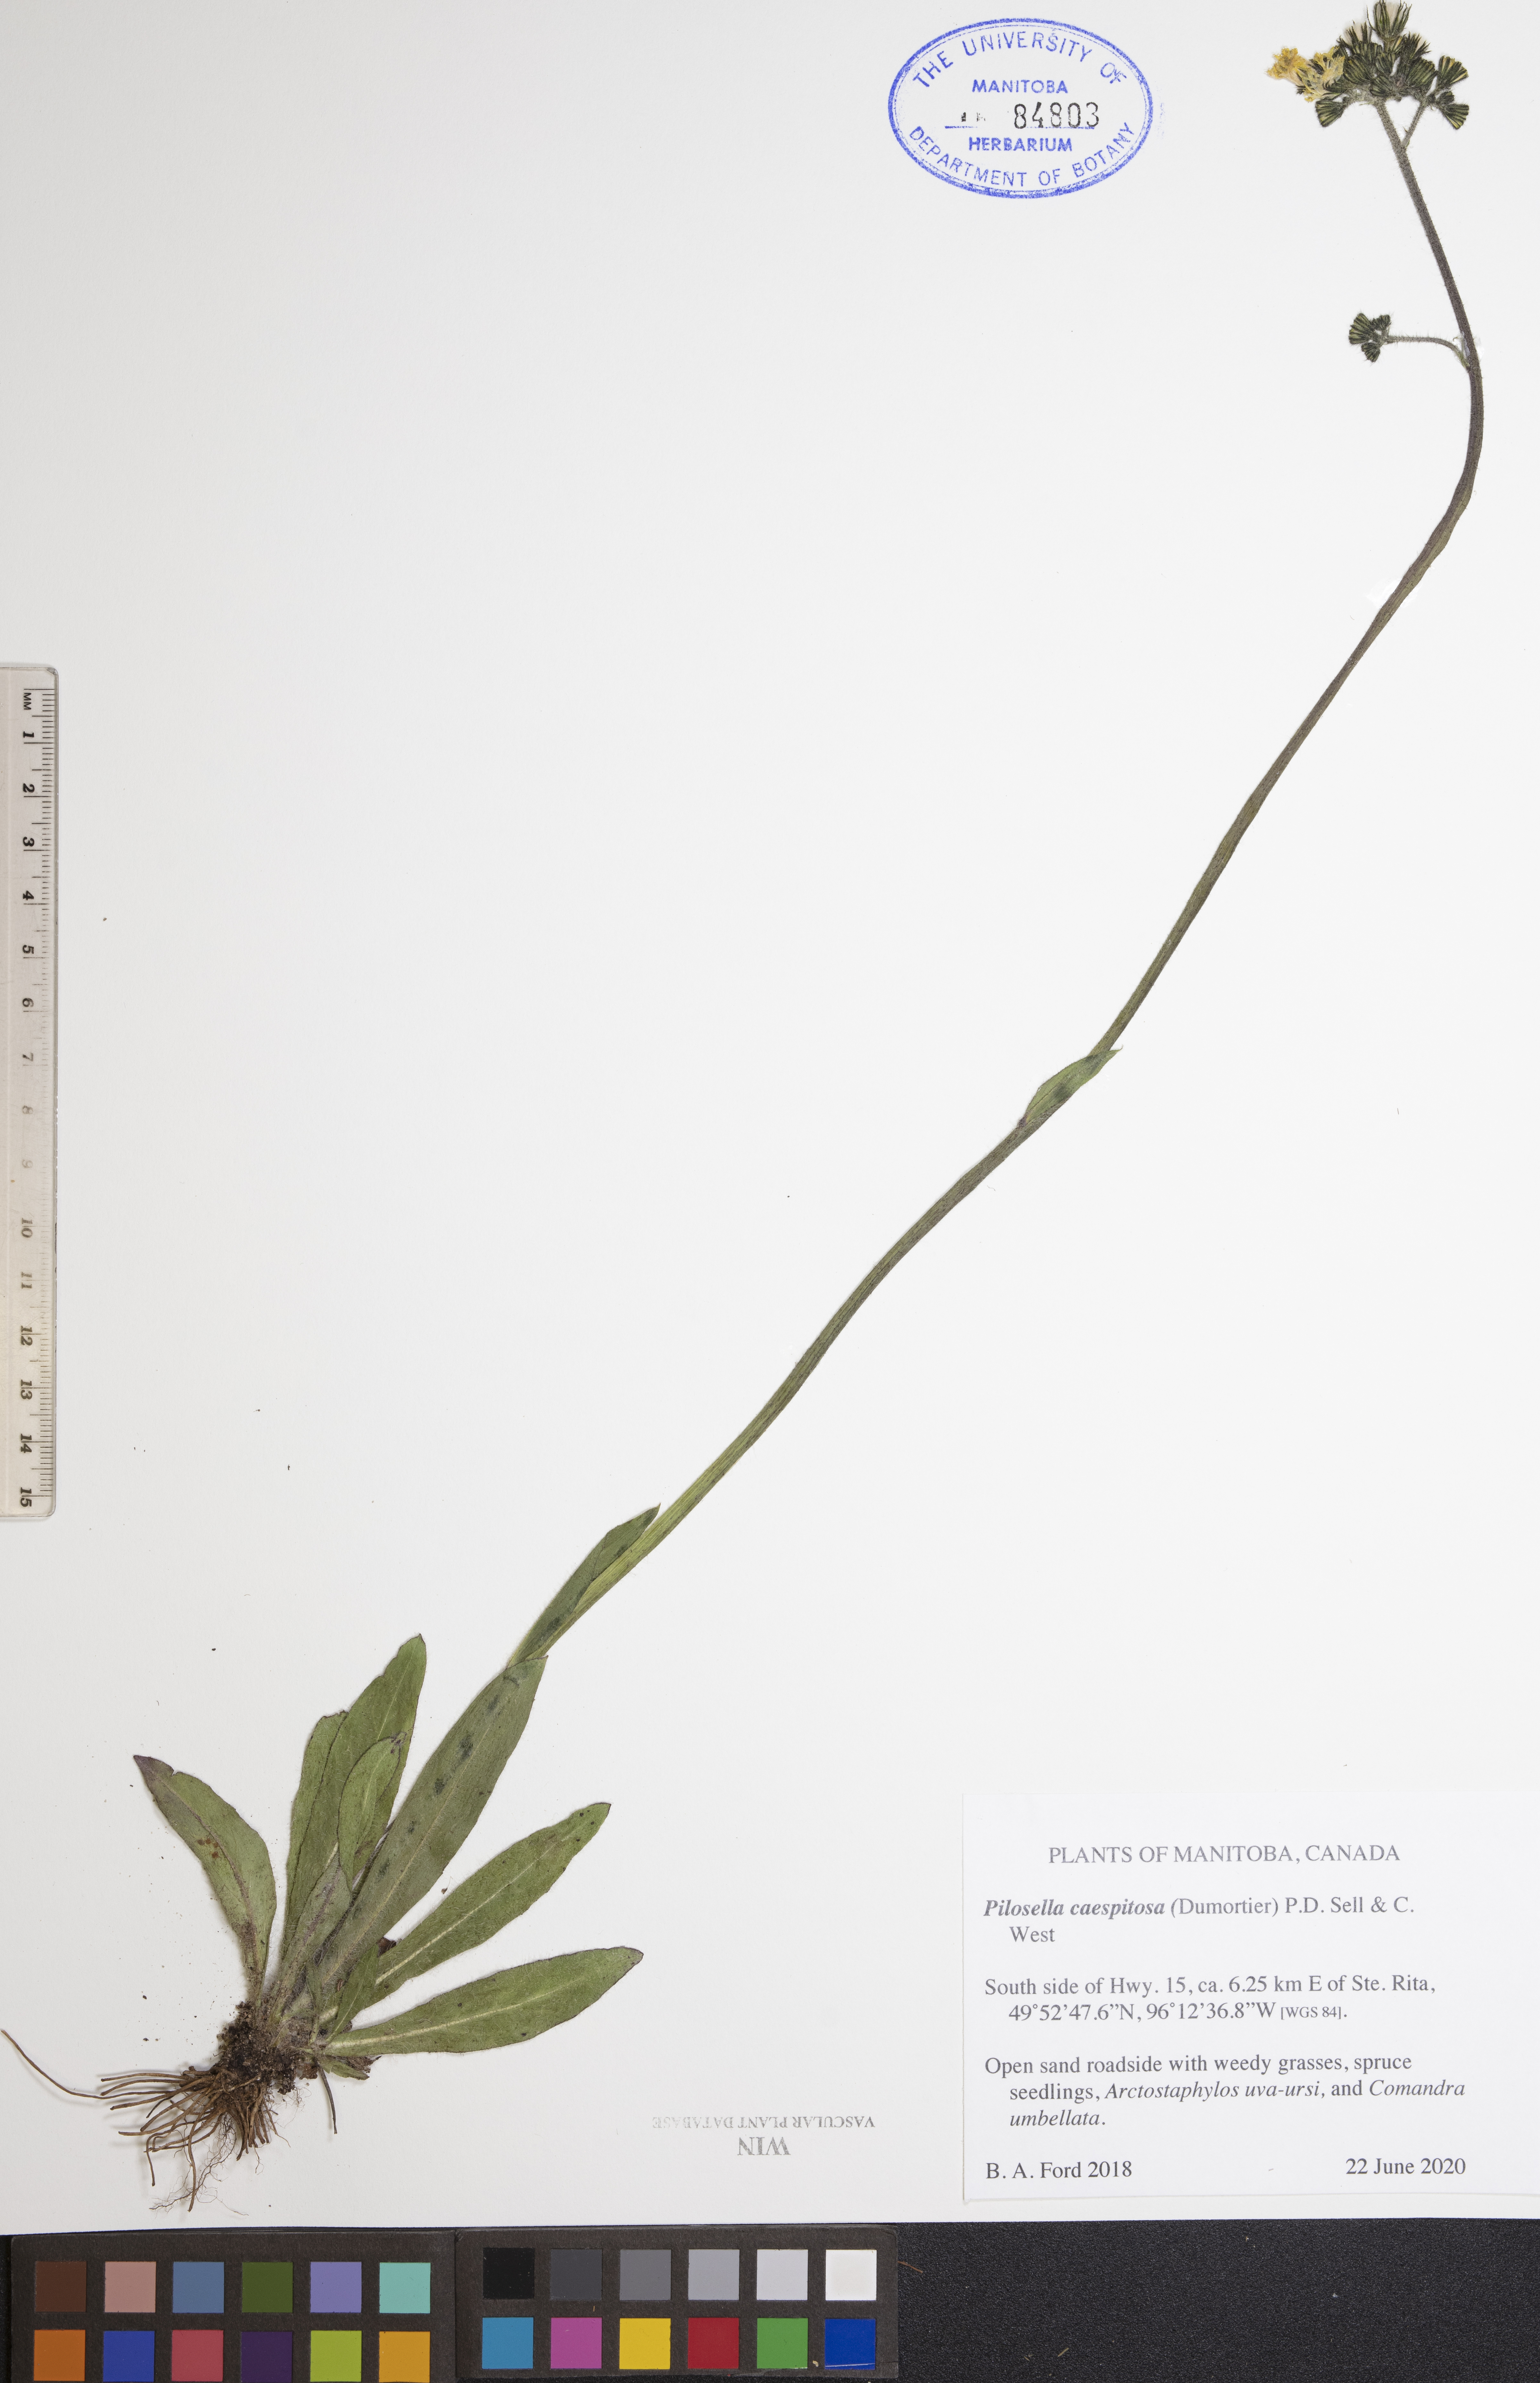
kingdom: Plantae
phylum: Tracheophyta
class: Magnoliopsida
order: Asterales
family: Asteraceae
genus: Pilosella
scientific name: Pilosella caespitosa
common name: Yellow fox-and-cubs
